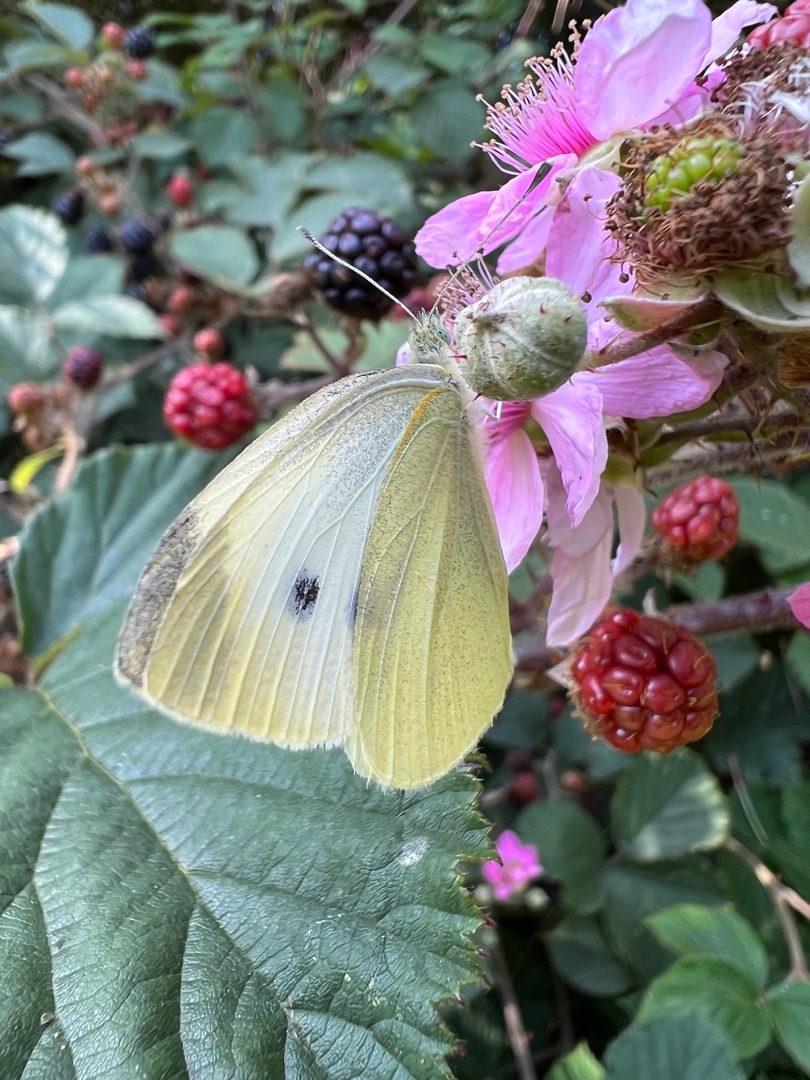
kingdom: Animalia
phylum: Arthropoda
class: Insecta
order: Lepidoptera
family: Pieridae
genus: Pieris
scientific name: Pieris rapae
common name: Lille kålsommerfugl
